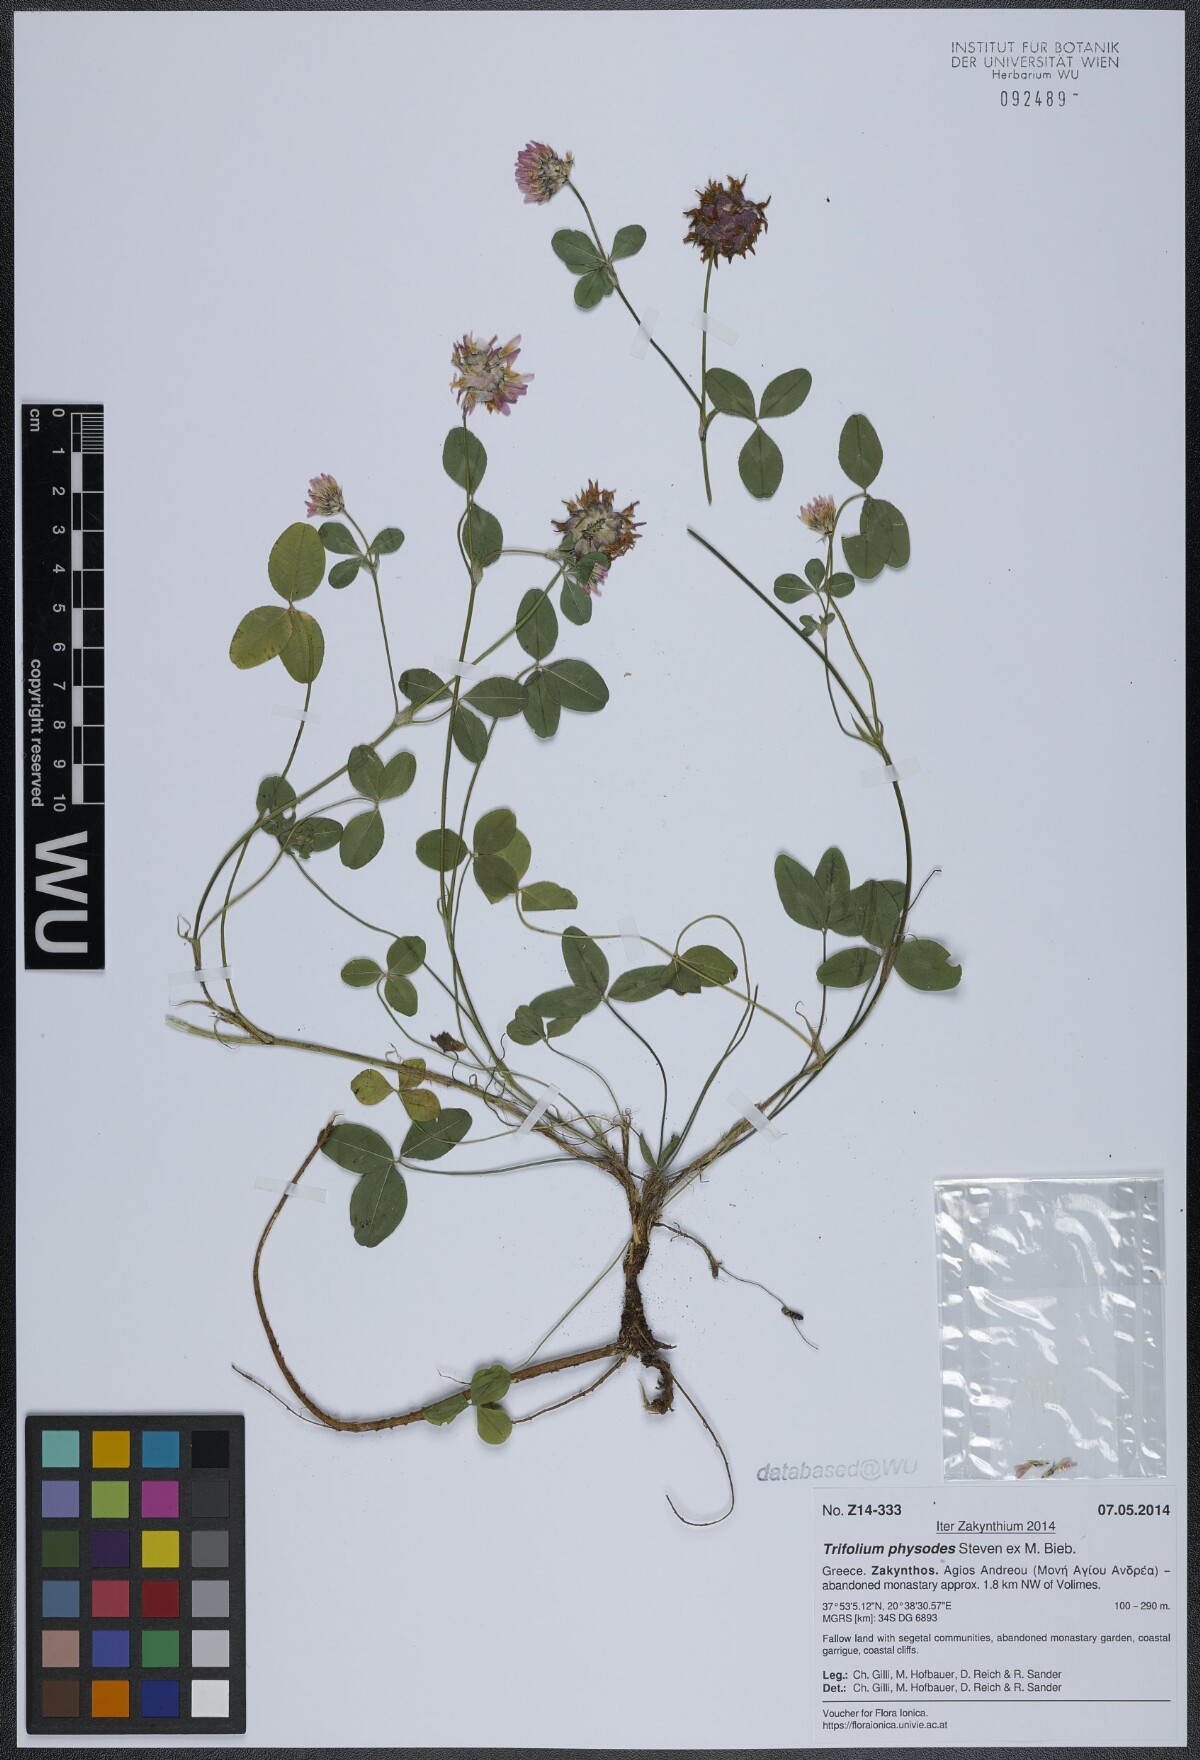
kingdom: Plantae
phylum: Tracheophyta
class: Magnoliopsida
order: Fabales
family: Fabaceae
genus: Trifolium
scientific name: Trifolium physodes
